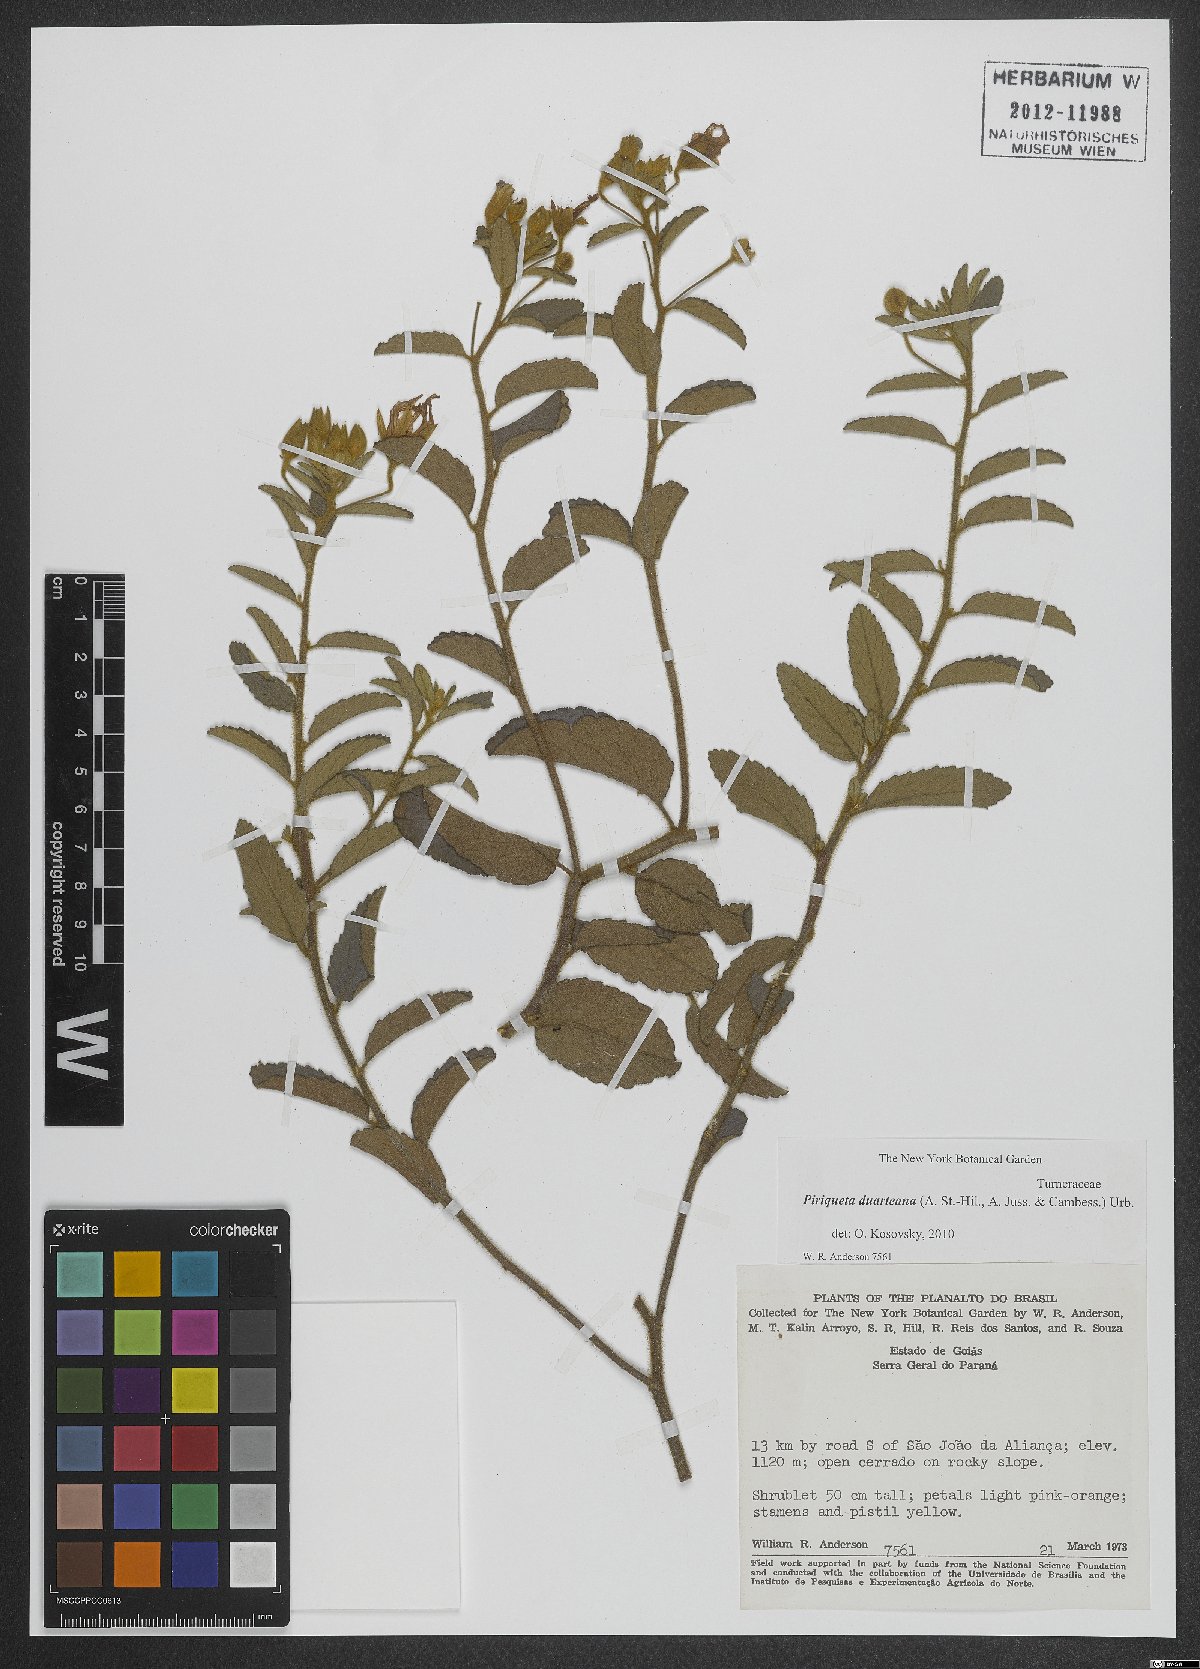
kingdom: Plantae
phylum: Tracheophyta
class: Magnoliopsida
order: Malpighiales
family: Turneraceae
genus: Piriqueta
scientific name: Piriqueta duarteana
